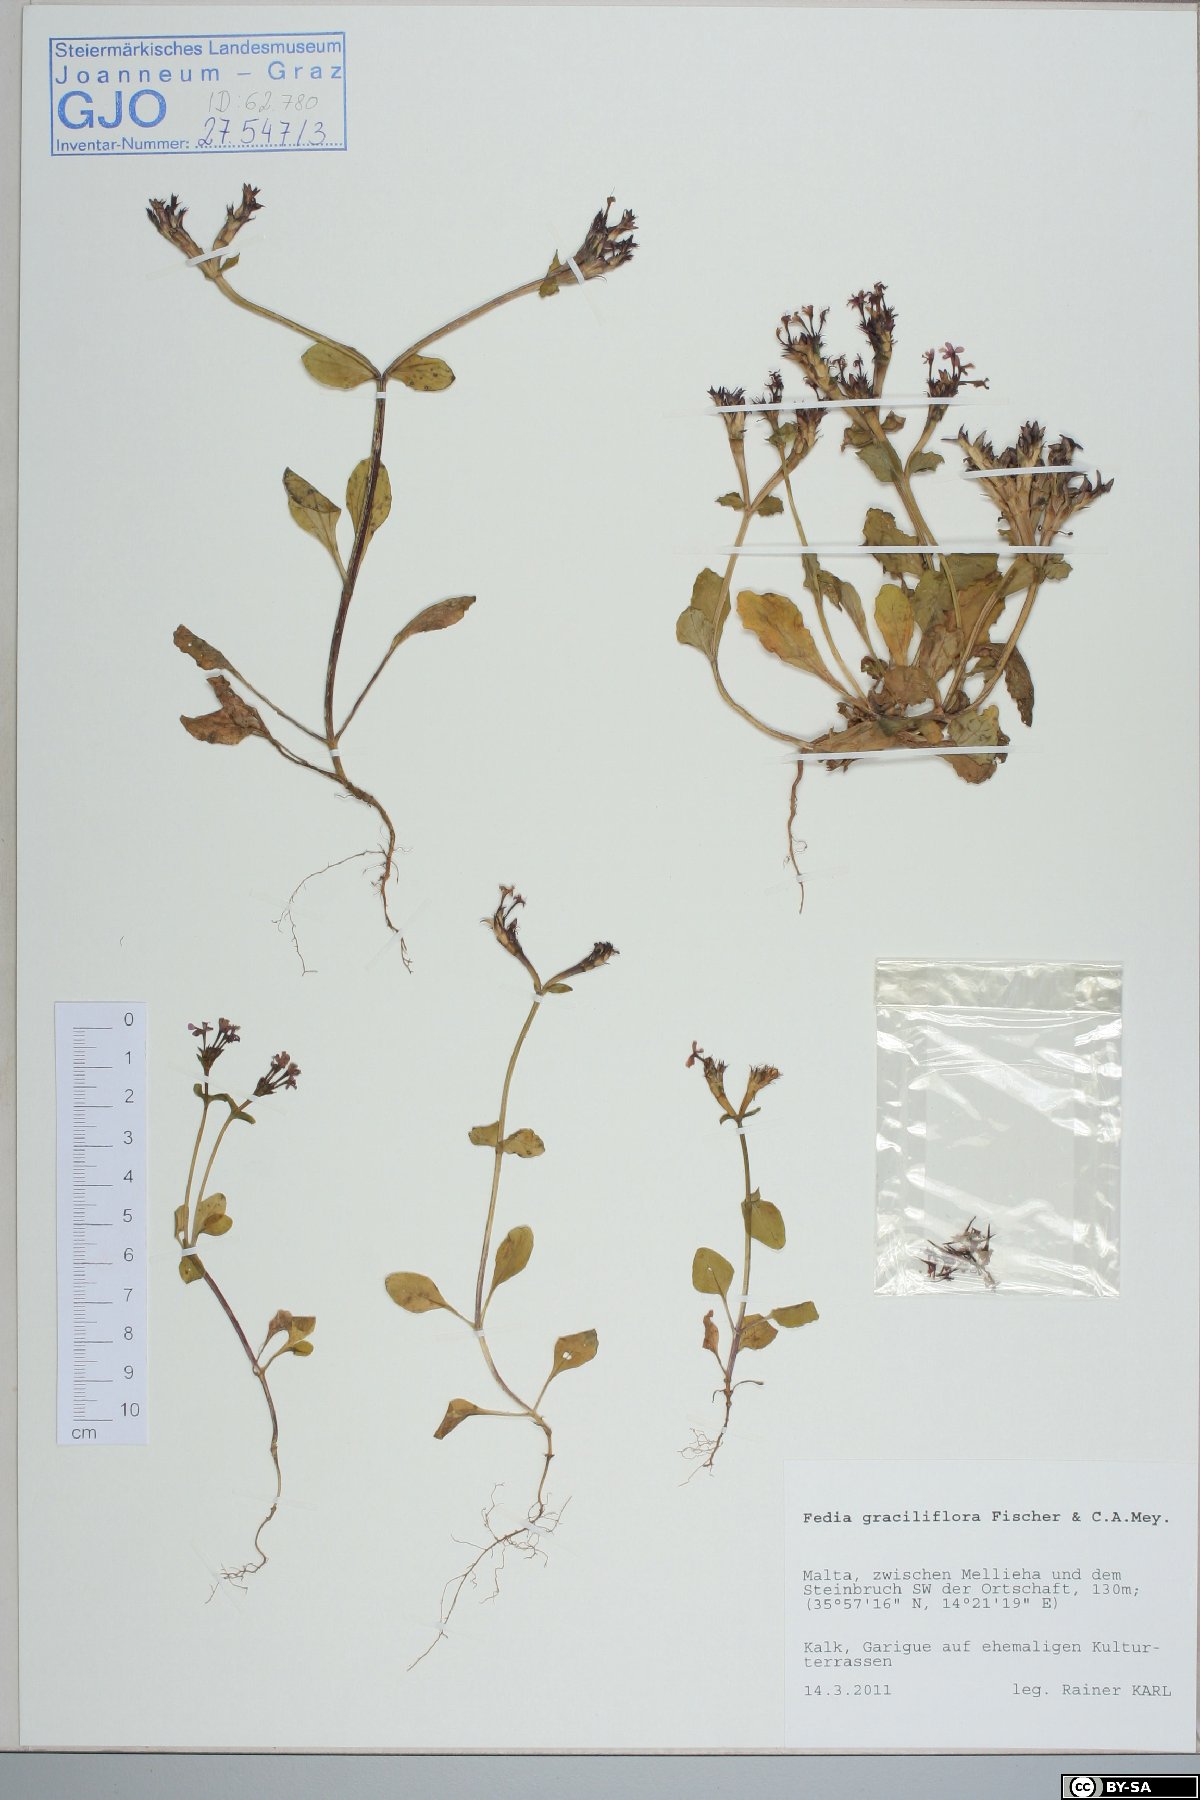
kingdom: Plantae
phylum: Tracheophyta
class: Magnoliopsida
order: Dipsacales
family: Caprifoliaceae
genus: Fedia
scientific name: Fedia graciliflora
